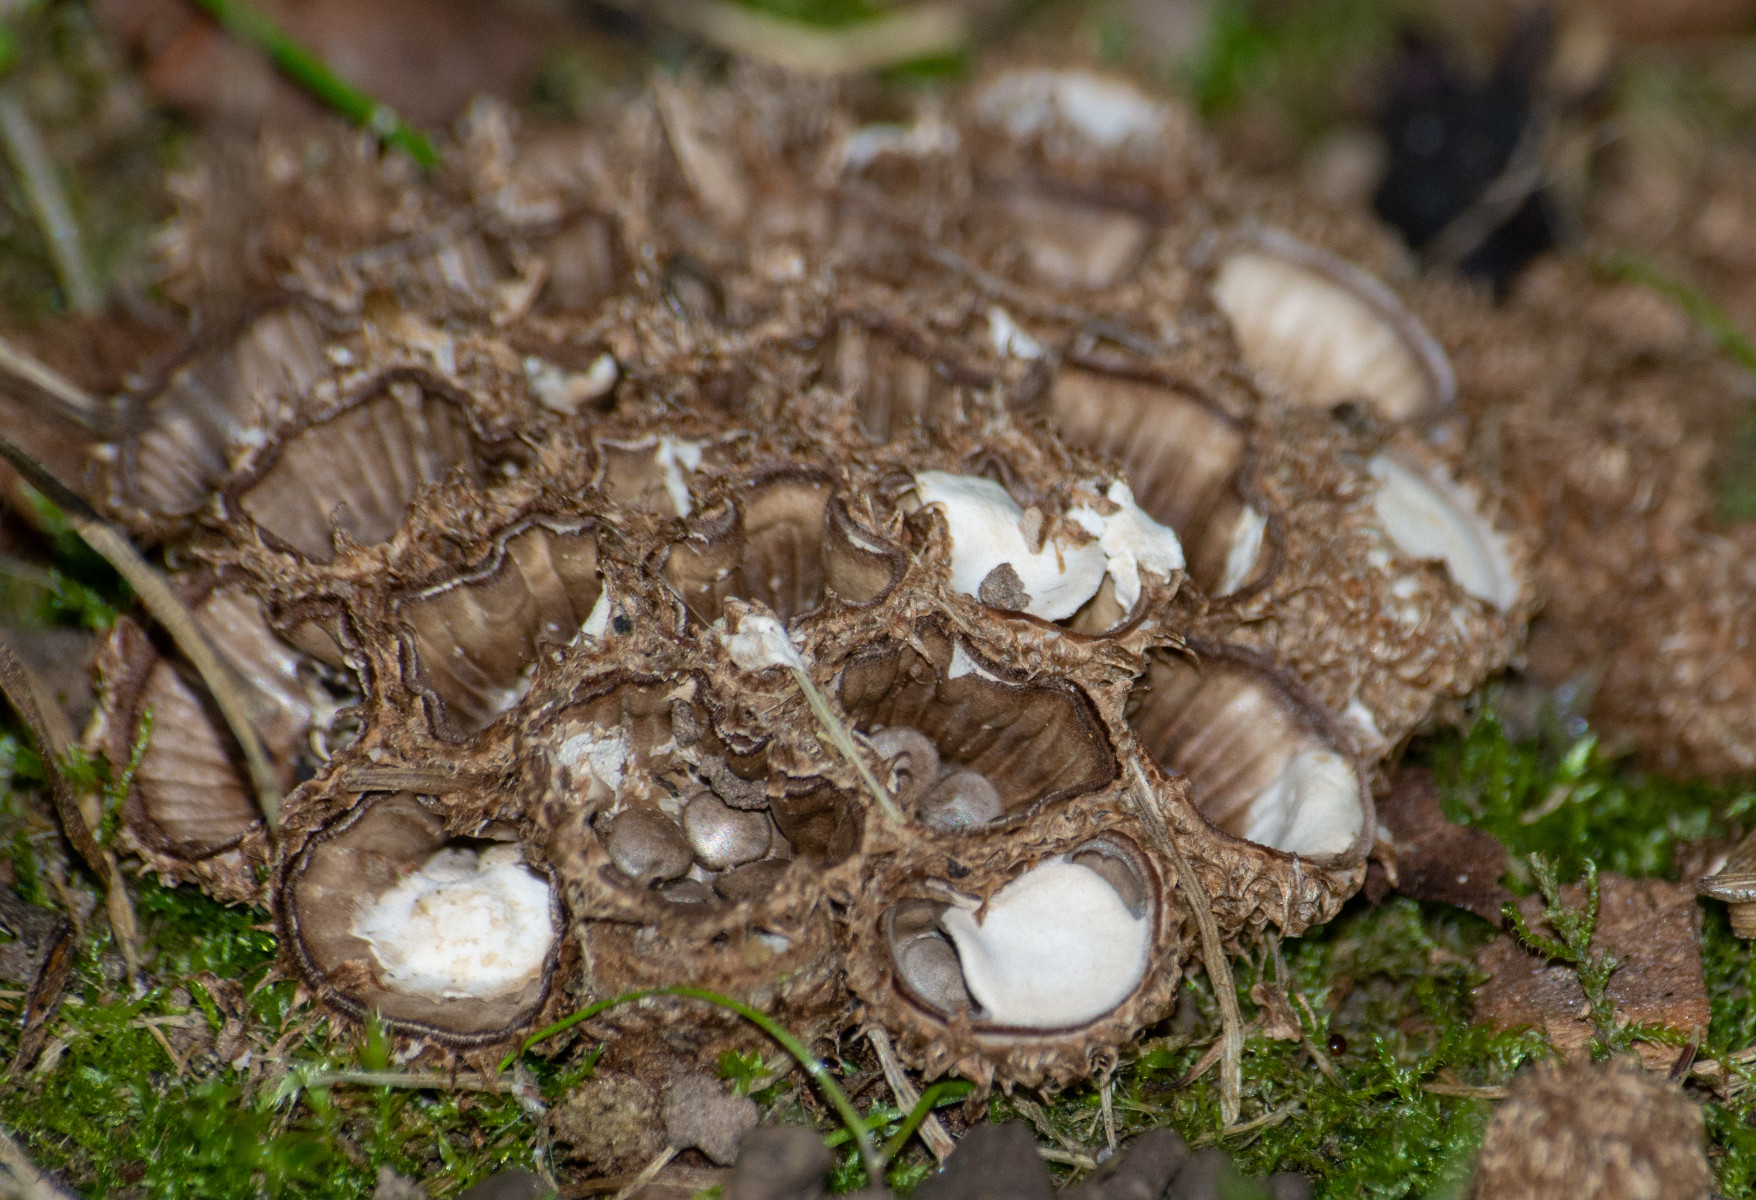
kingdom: Fungi
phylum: Basidiomycota
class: Agaricomycetes
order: Agaricales
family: Agaricaceae
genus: Cyathus
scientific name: Cyathus striatus
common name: stribet redesvamp
